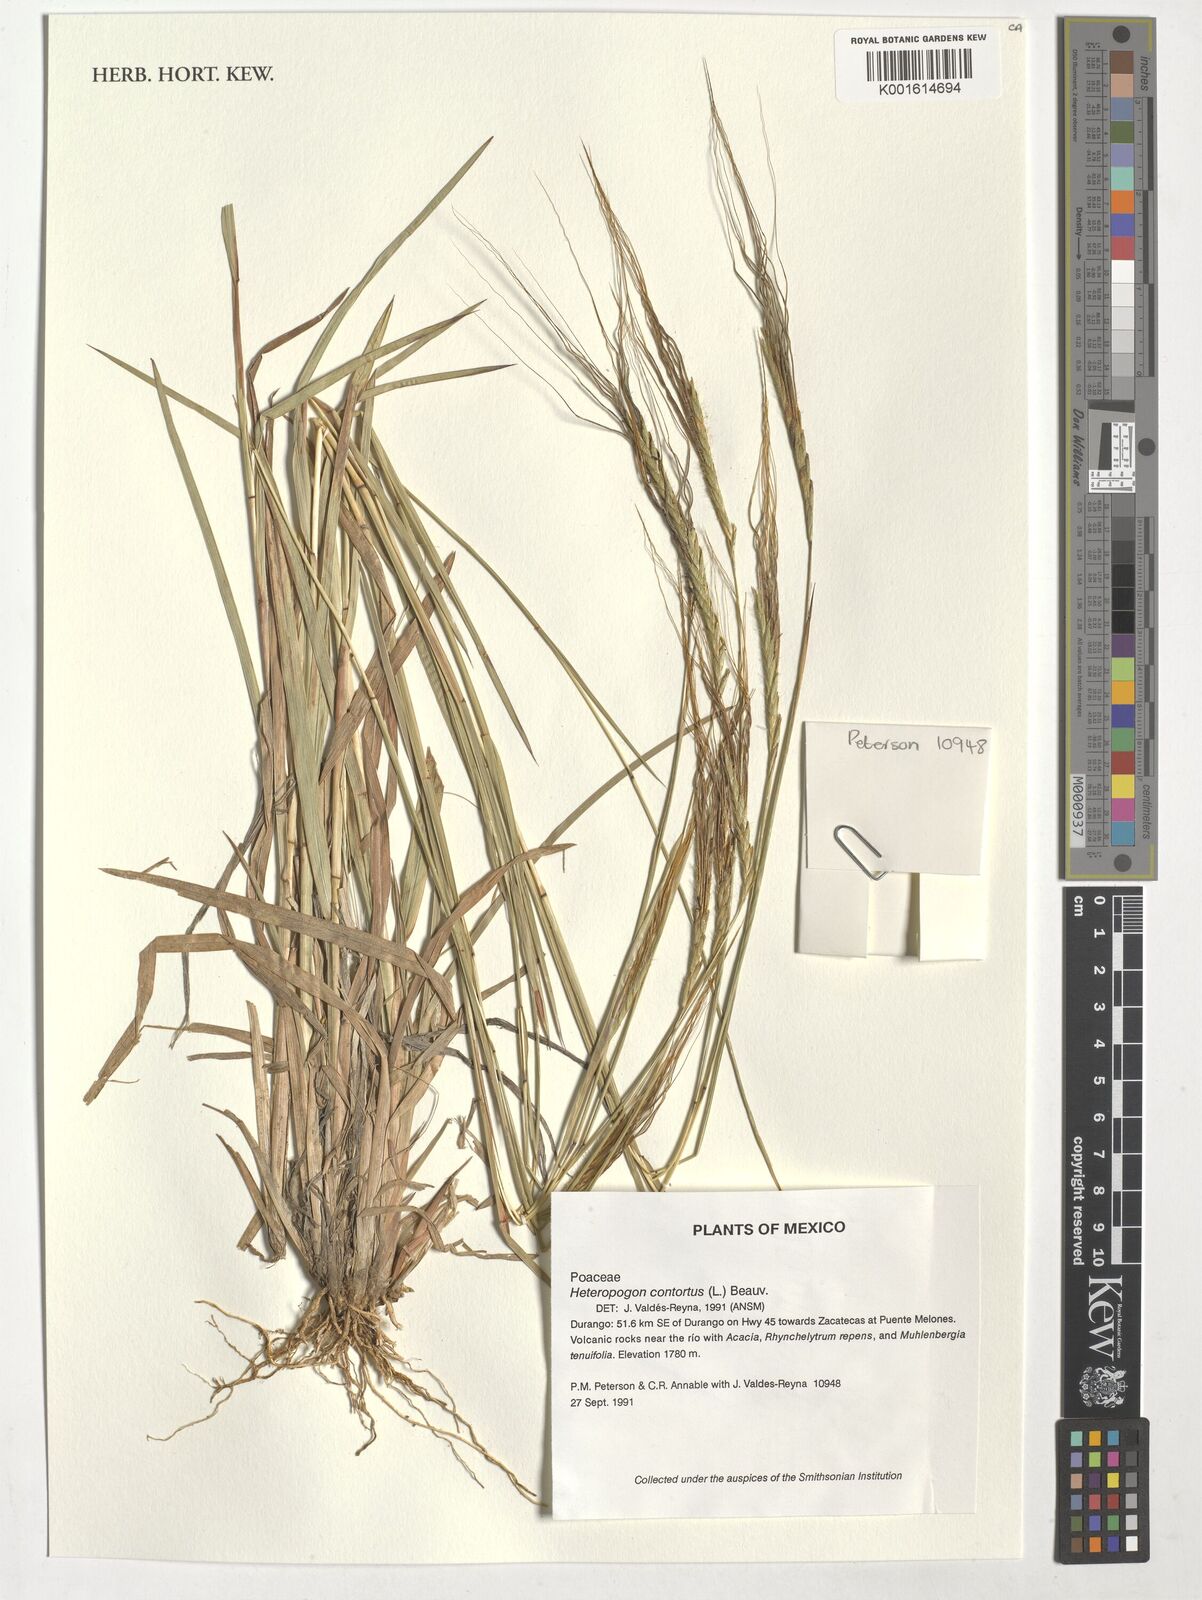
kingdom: Plantae
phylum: Tracheophyta
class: Liliopsida
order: Poales
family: Poaceae
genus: Heteropogon
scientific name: Heteropogon contortus
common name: Tanglehead
